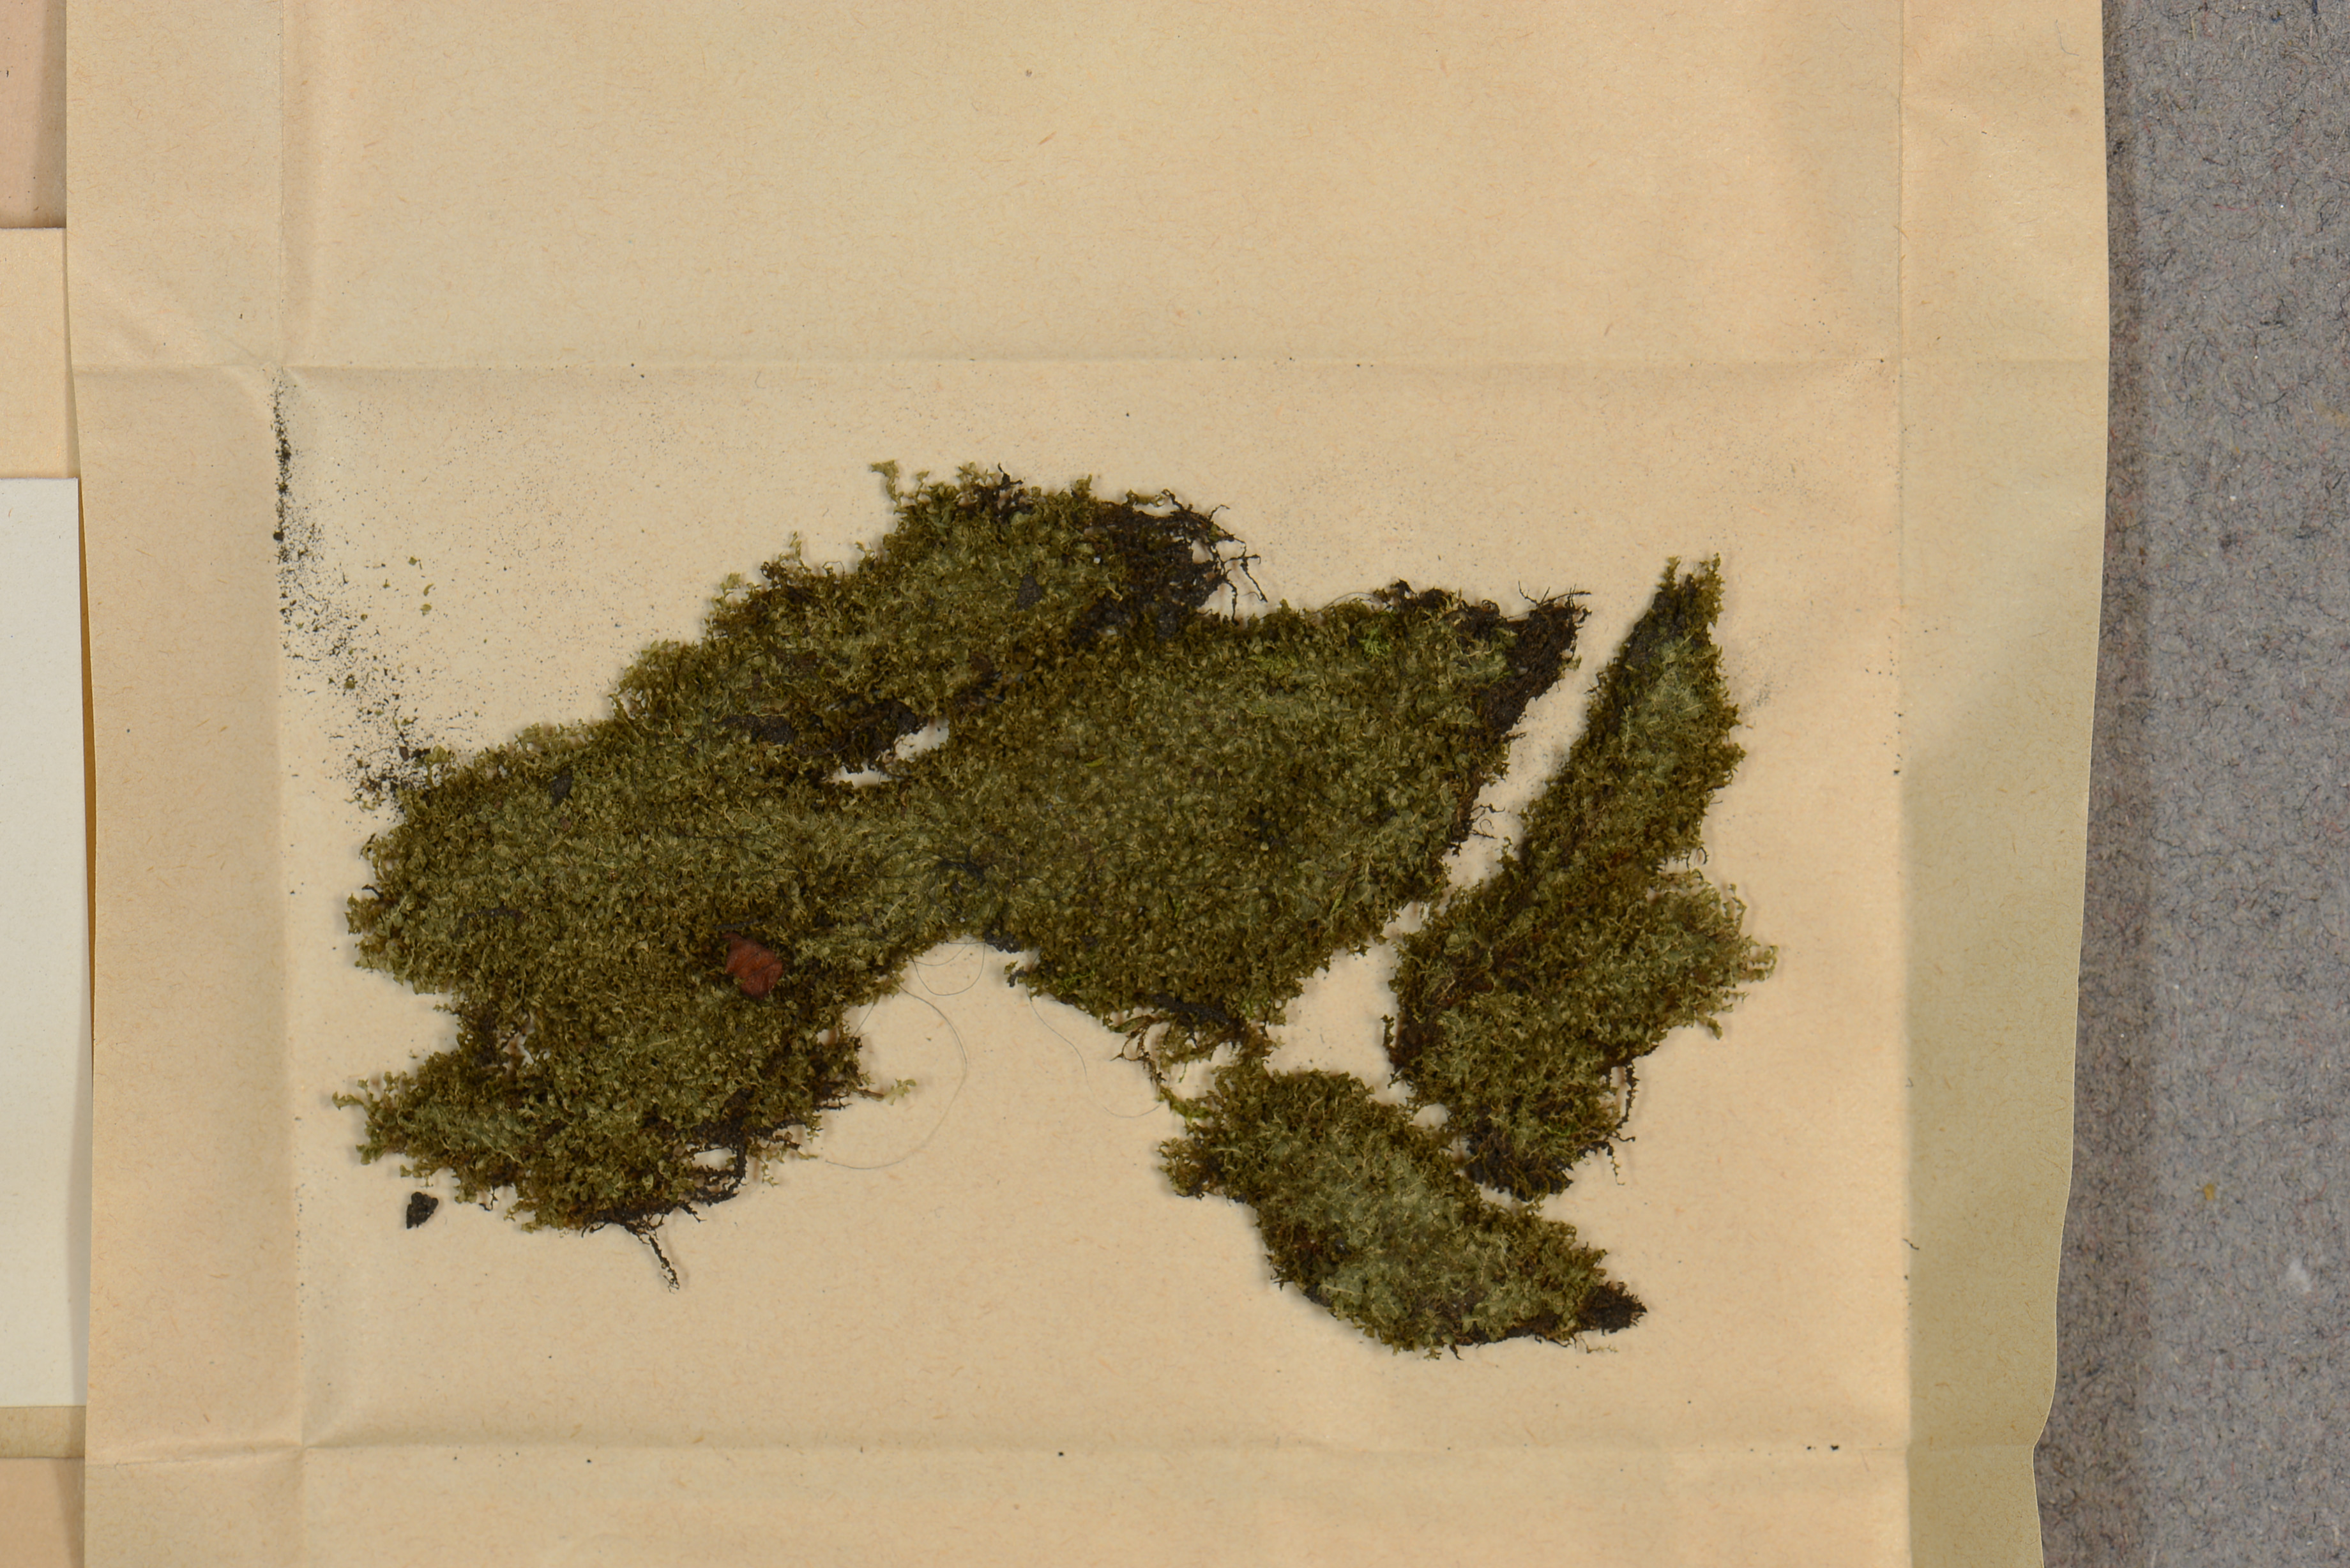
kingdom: Plantae
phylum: Marchantiophyta
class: Jungermanniopsida
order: Jungermanniales
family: Jungermanniaceae
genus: Jungermannia
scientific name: Jungermannia atrovirens
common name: Dark-green flapwort
